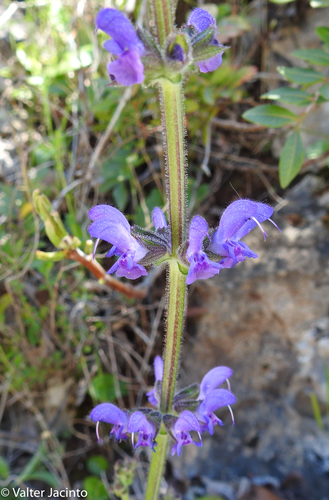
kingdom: Plantae
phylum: Tracheophyta
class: Magnoliopsida
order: Lamiales
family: Lamiaceae
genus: Salvia
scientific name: Salvia sclareoides
